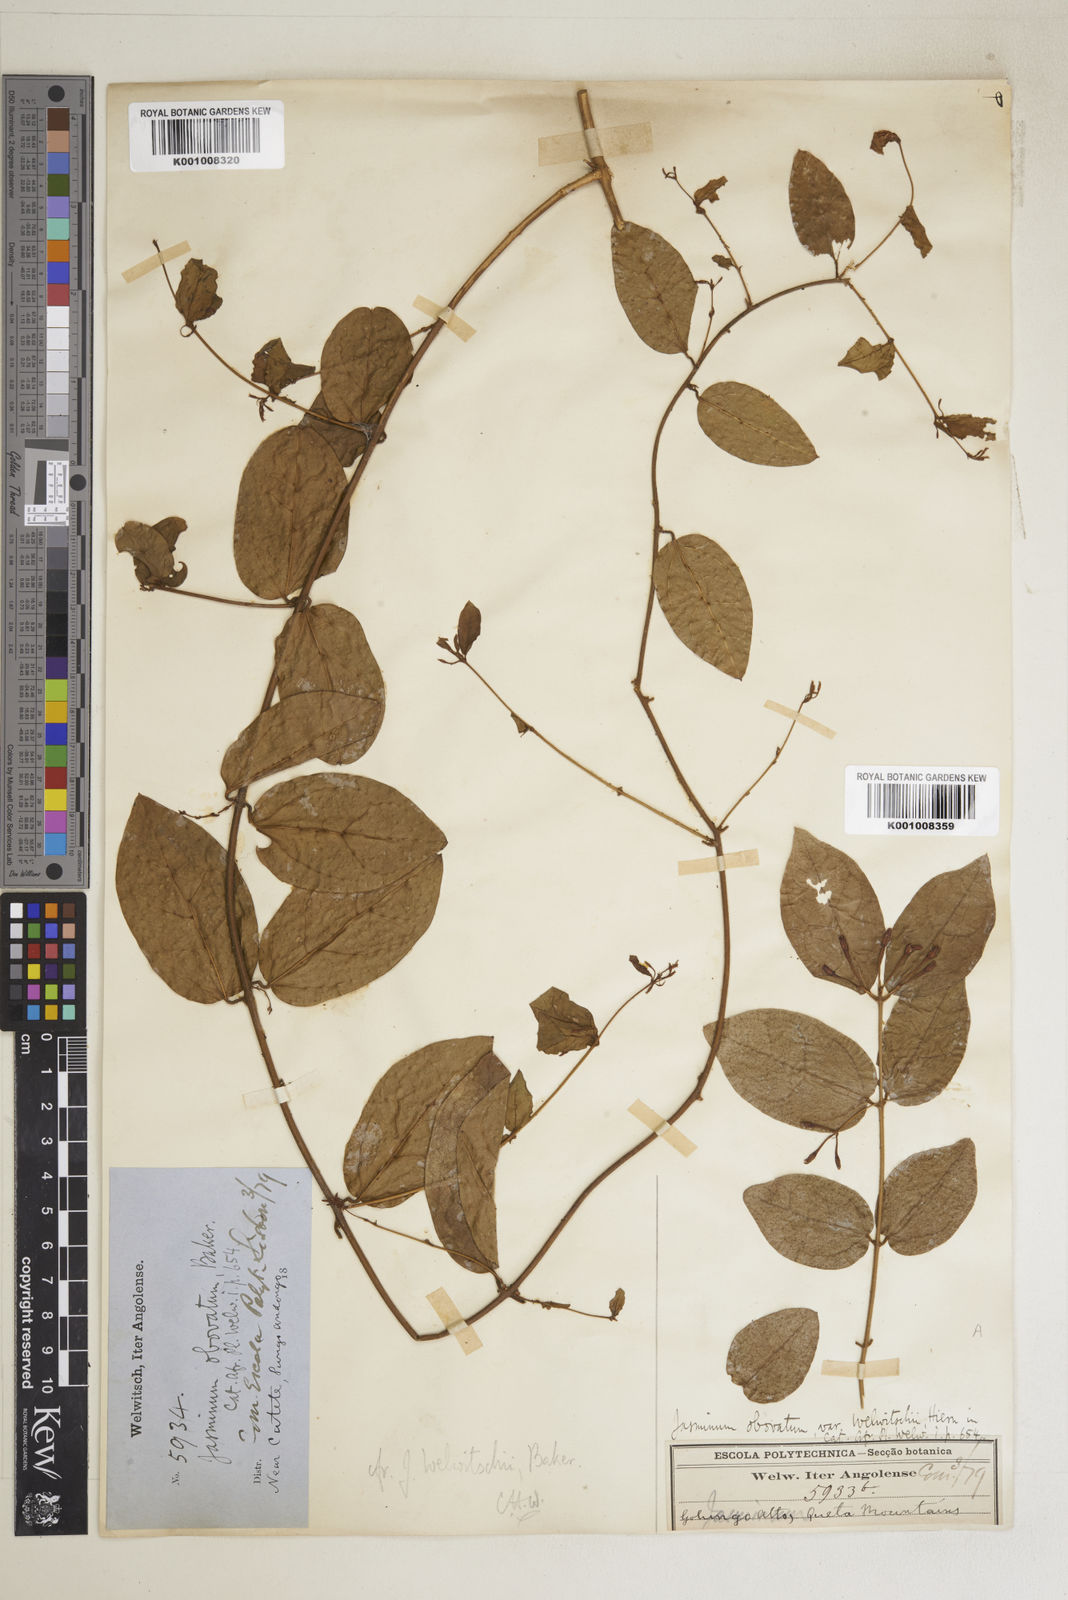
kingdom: Plantae
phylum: Tracheophyta
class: Magnoliopsida
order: Lamiales
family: Oleaceae
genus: Jasminum
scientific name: Jasminum pauciflorum
